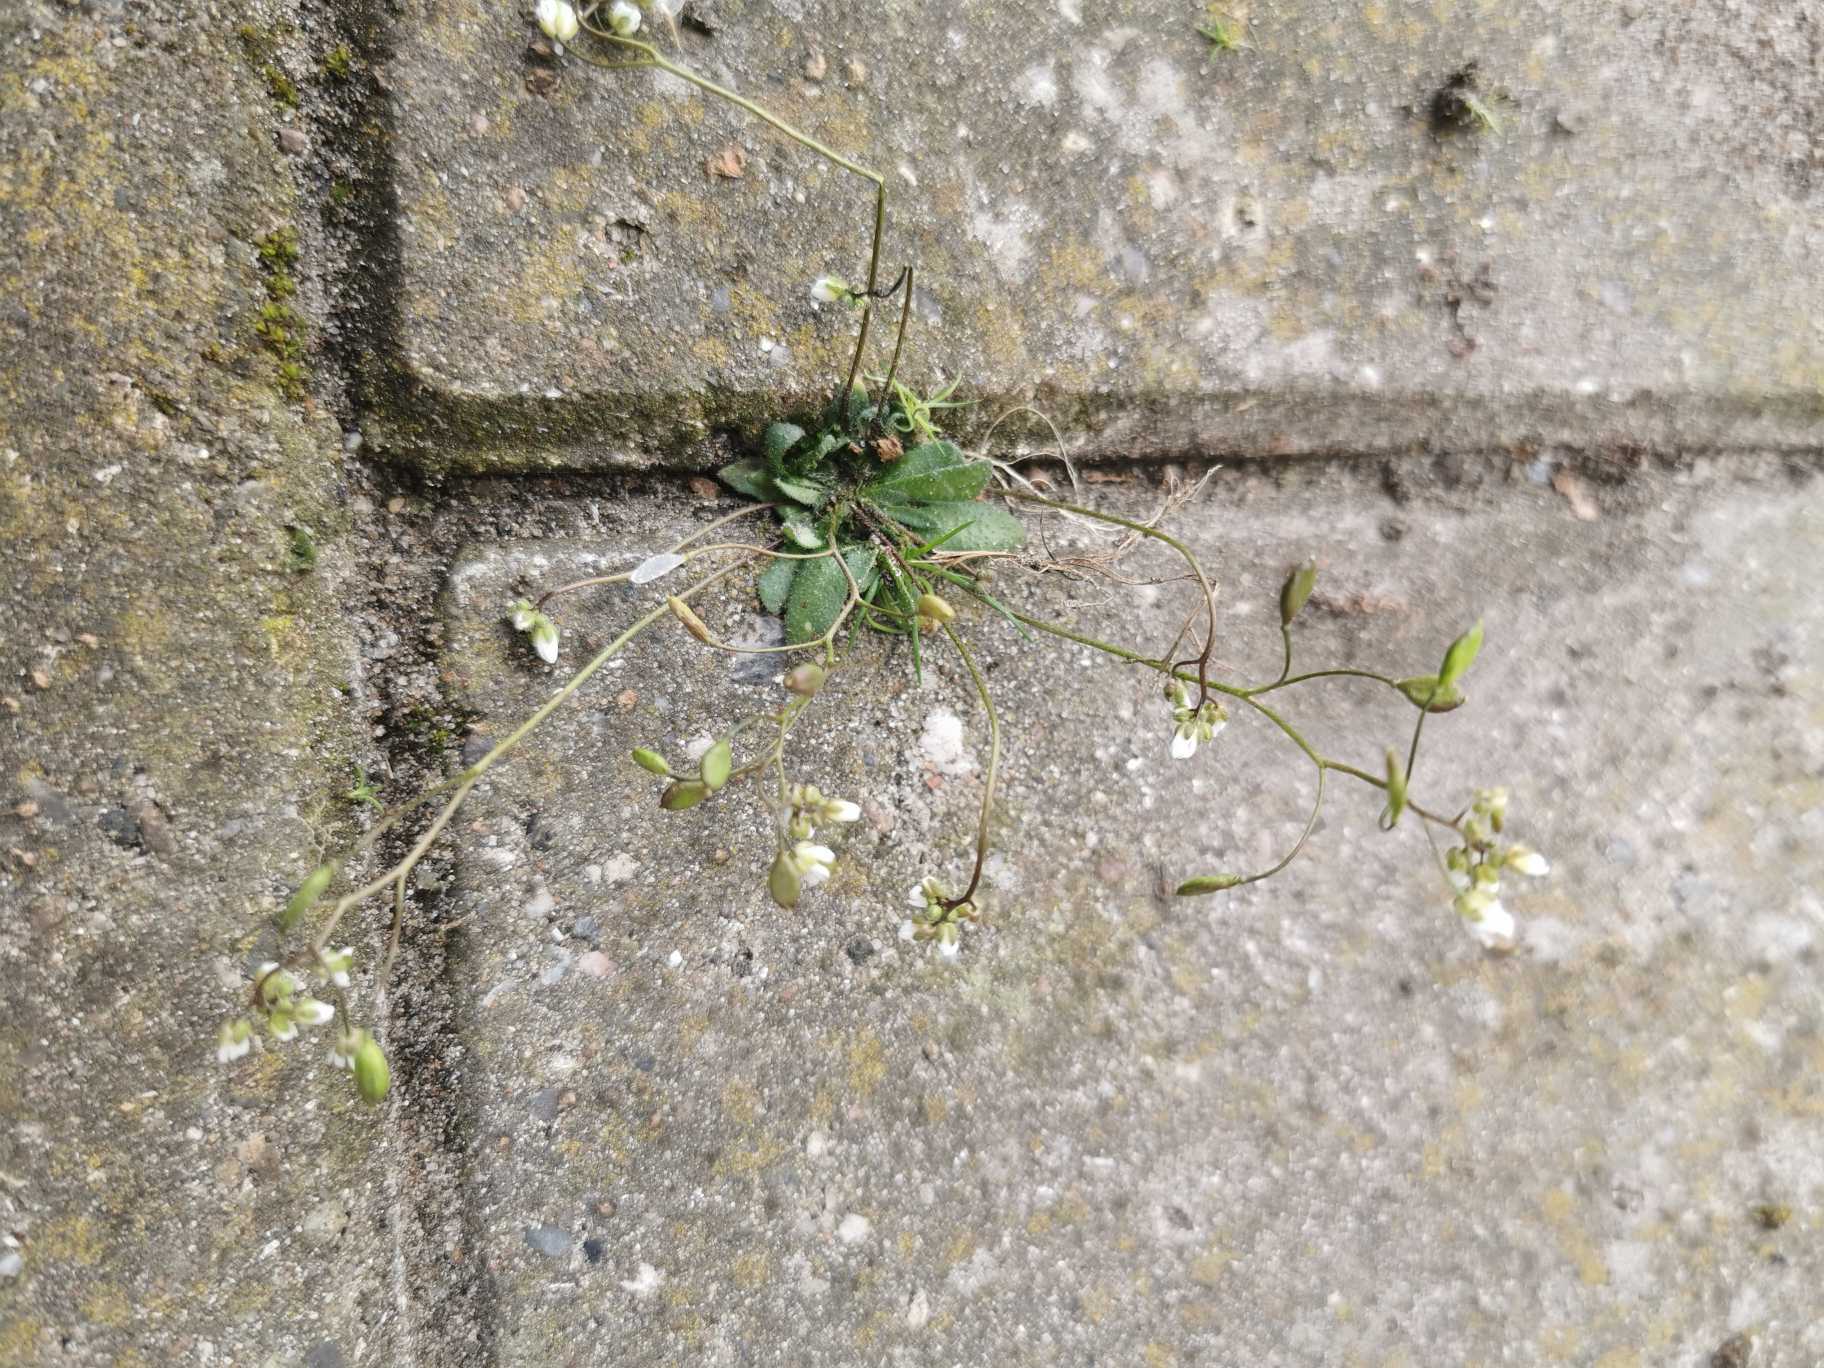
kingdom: Plantae
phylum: Tracheophyta
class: Magnoliopsida
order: Brassicales
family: Brassicaceae
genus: Draba
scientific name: Draba verna
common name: Vår-gæslingeblomst
